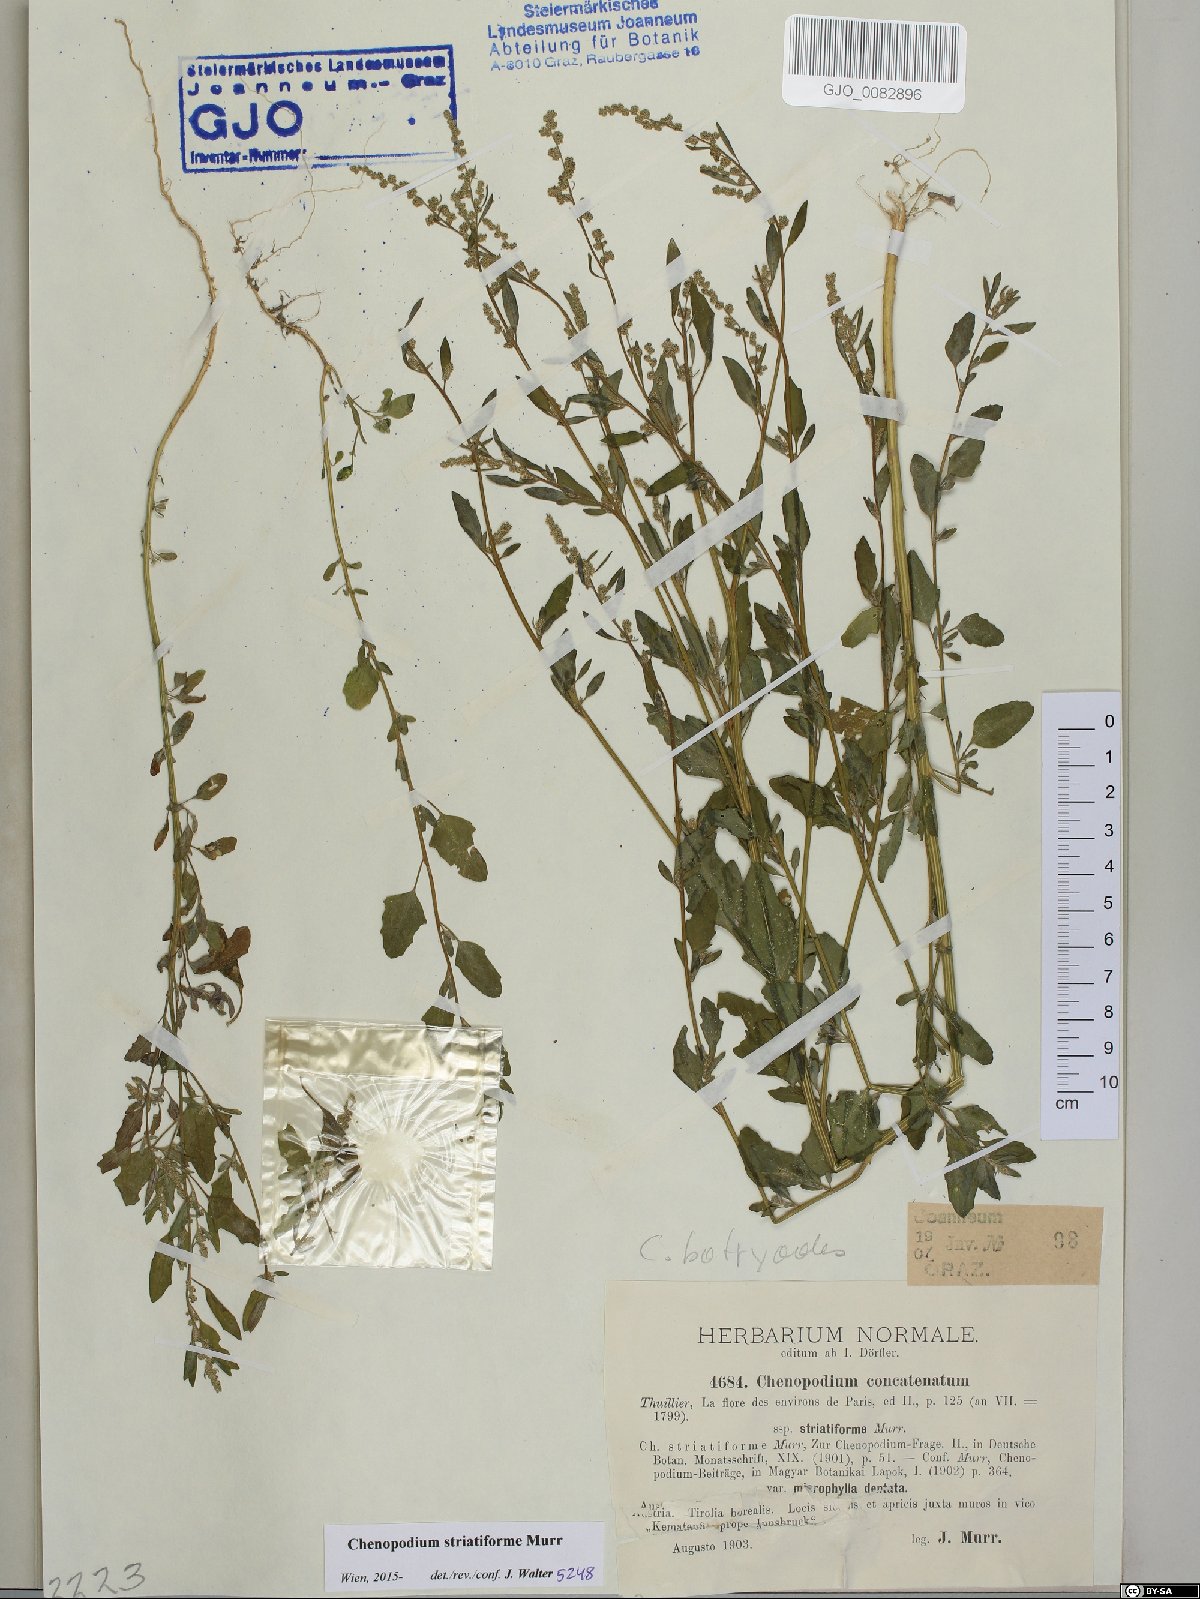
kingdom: Plantae
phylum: Tracheophyta
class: Magnoliopsida
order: Caryophyllales
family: Amaranthaceae
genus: Chenopodium
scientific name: Chenopodium striatiforme
